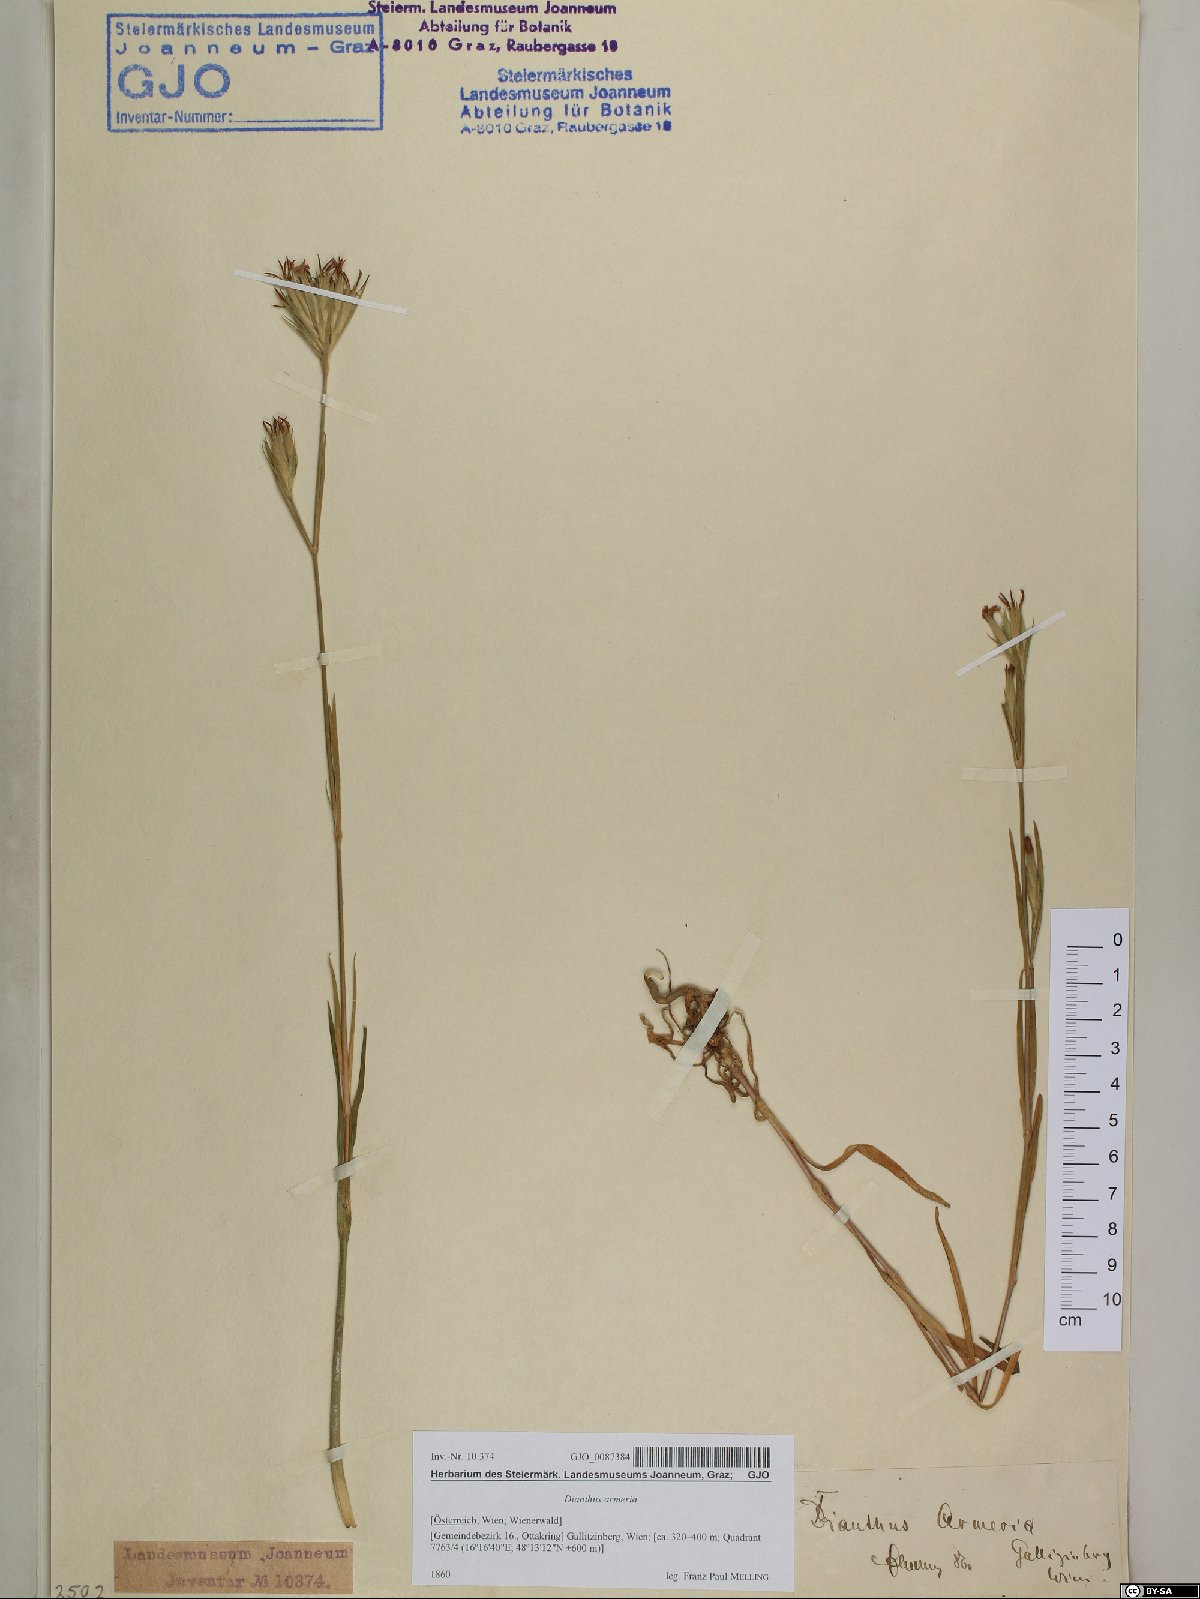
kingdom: Plantae
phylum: Tracheophyta
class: Magnoliopsida
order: Caryophyllales
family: Caryophyllaceae
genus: Dianthus
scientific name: Dianthus armeria
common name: Deptford pink
